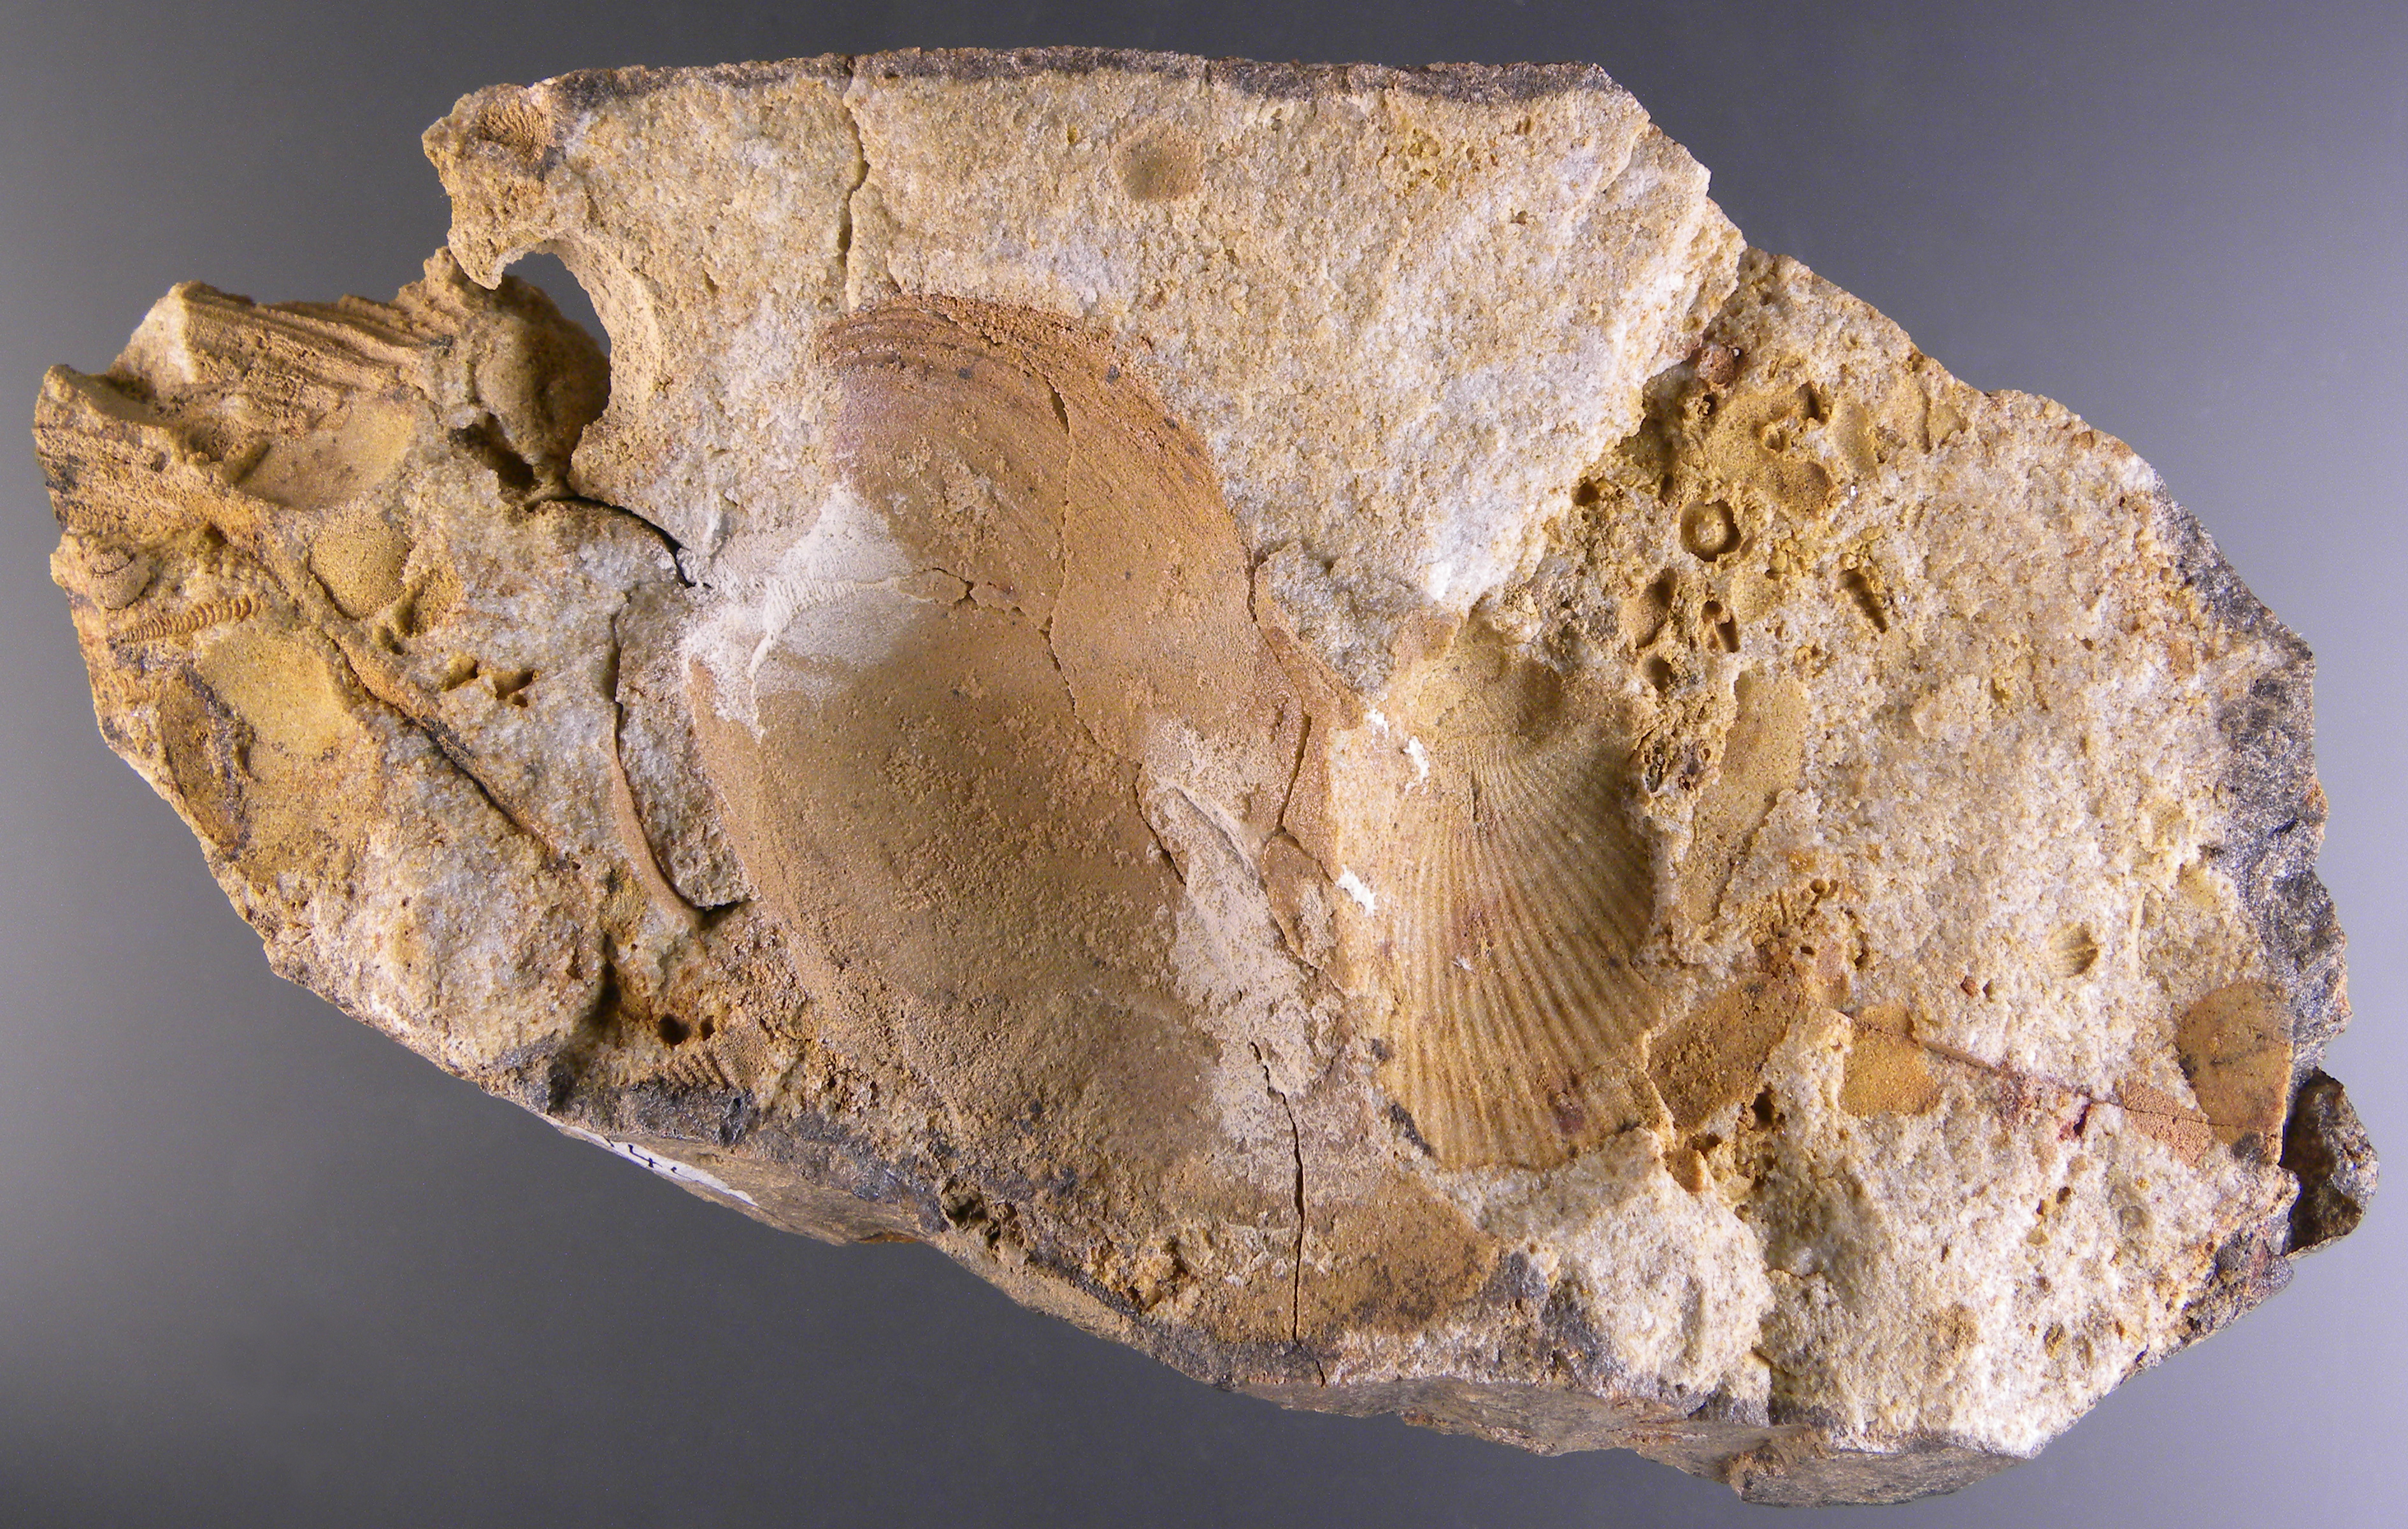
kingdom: Animalia
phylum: Mollusca
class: Bivalvia
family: Grammysiidae
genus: Grammysia
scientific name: Grammysia
